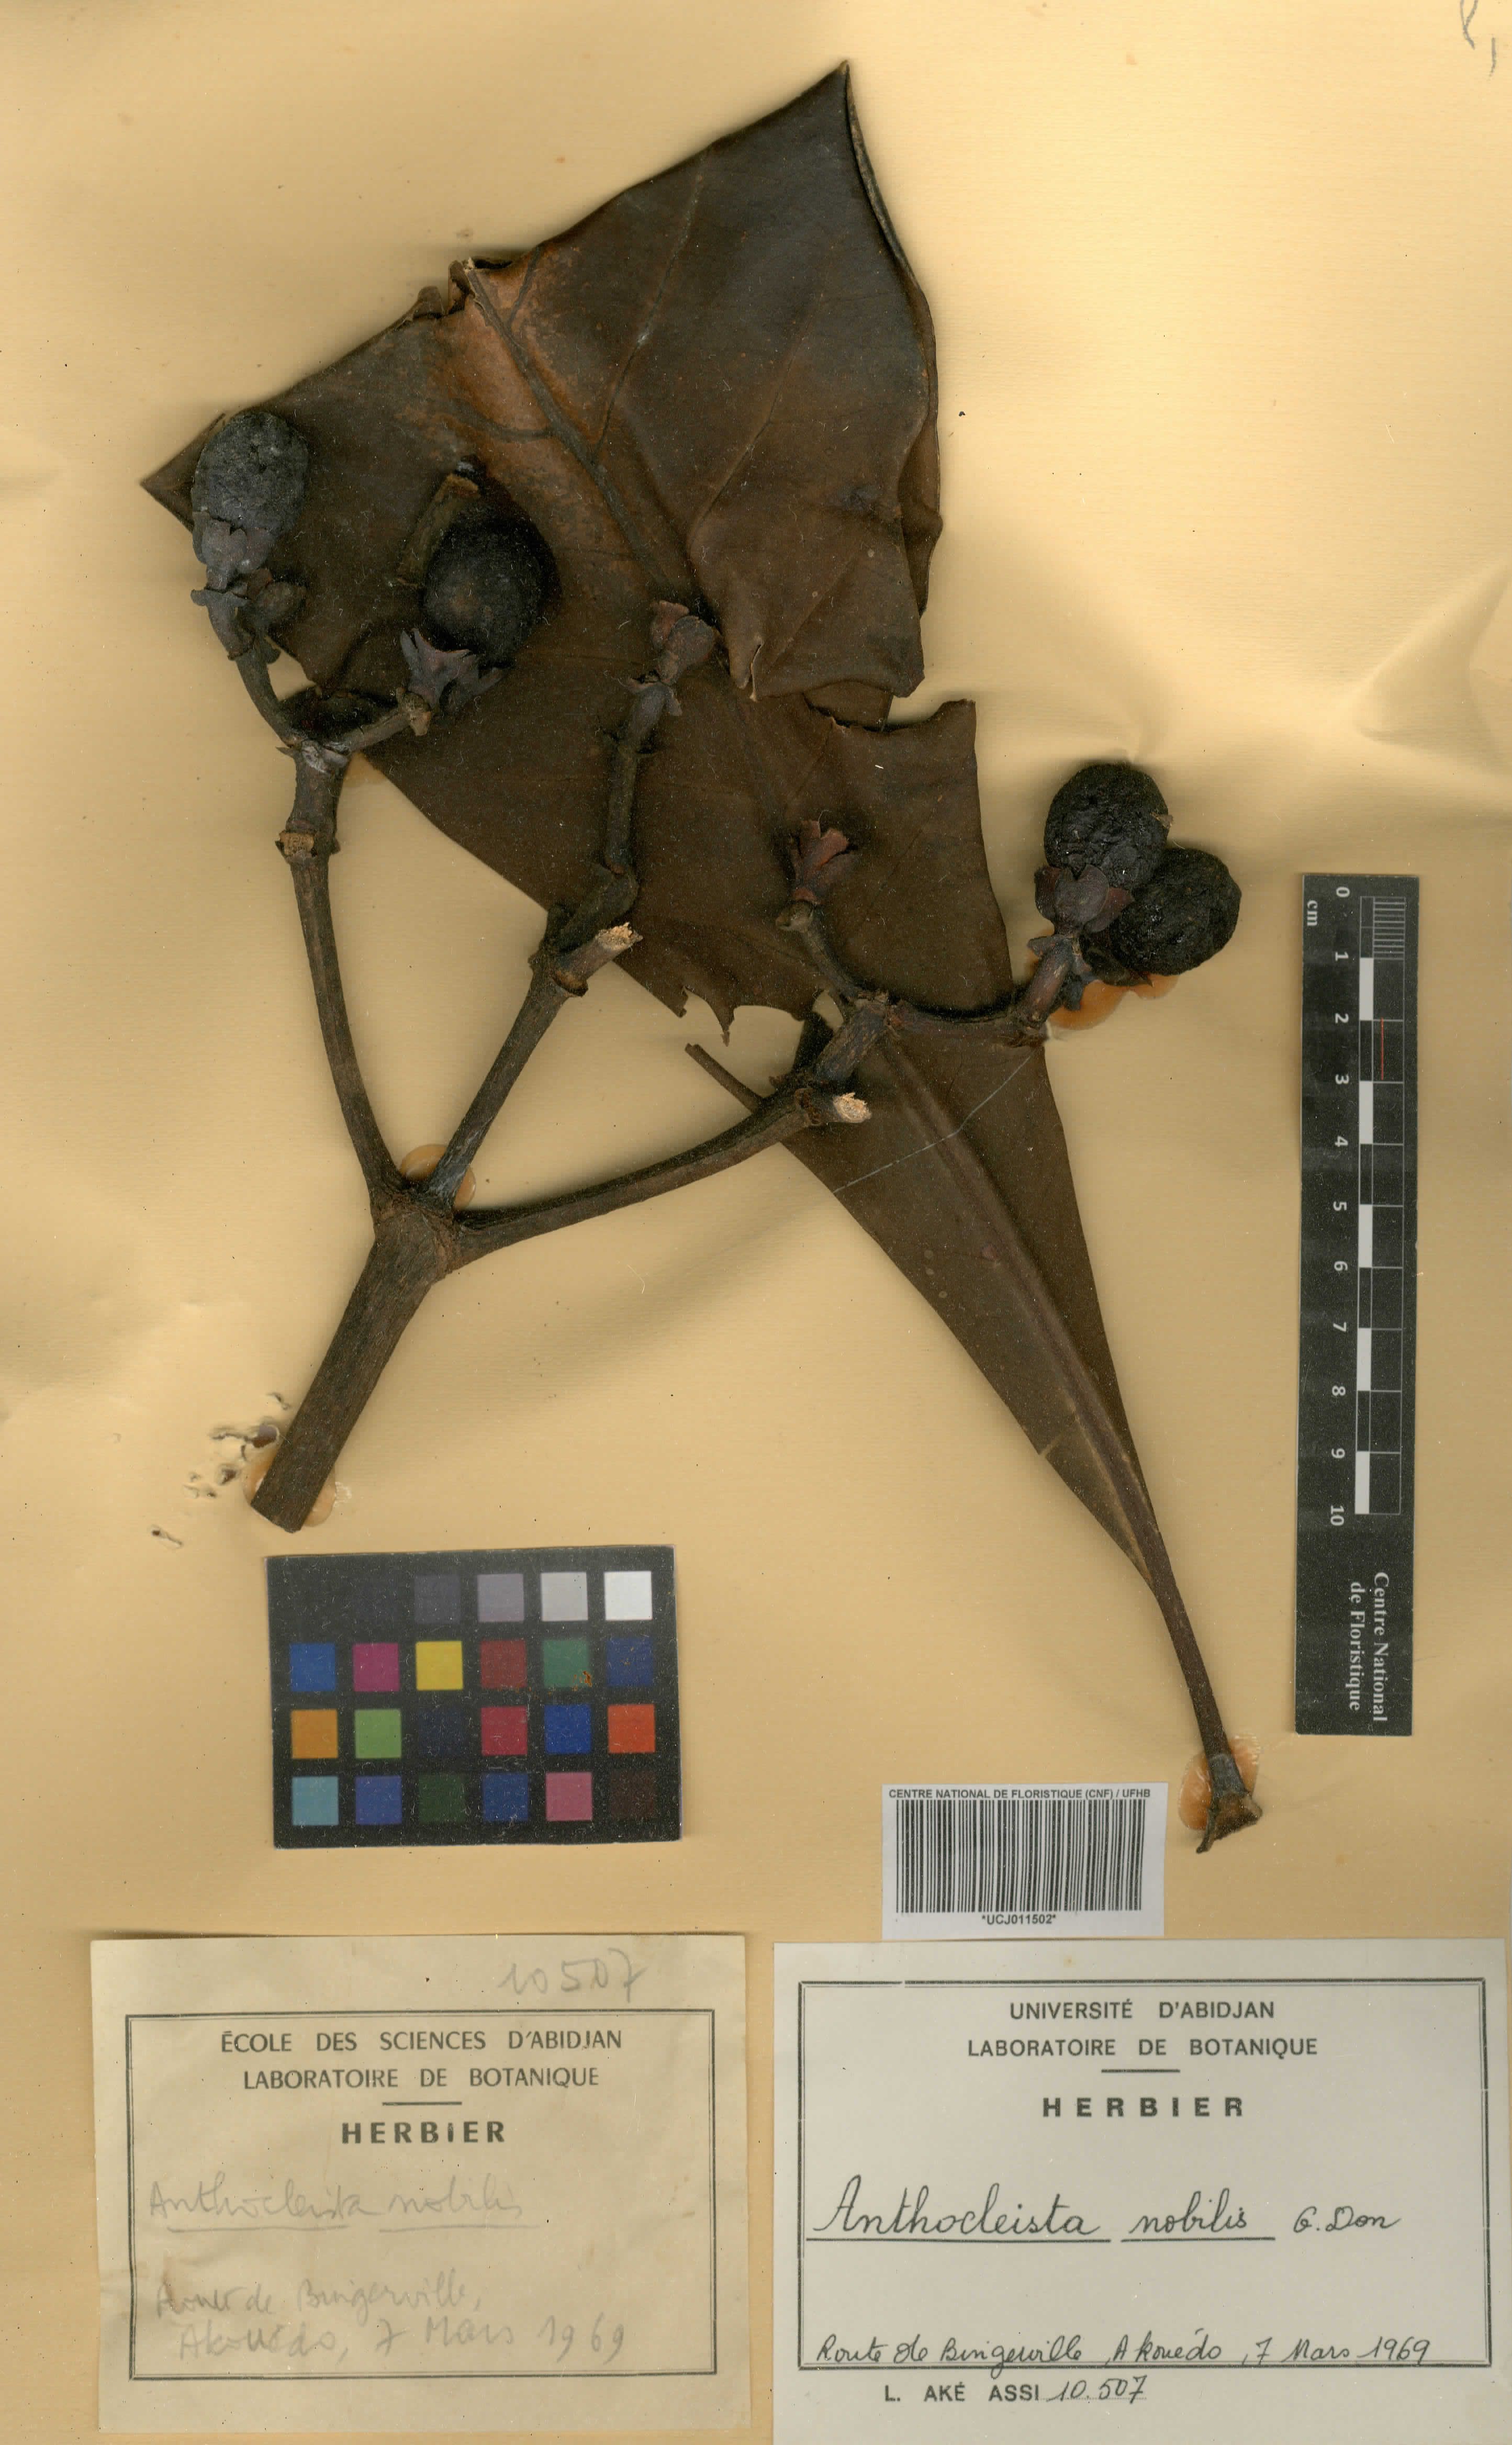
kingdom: Plantae
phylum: Tracheophyta
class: Magnoliopsida
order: Gentianales
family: Gentianaceae
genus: Anthocleista
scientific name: Anthocleista nobilis
